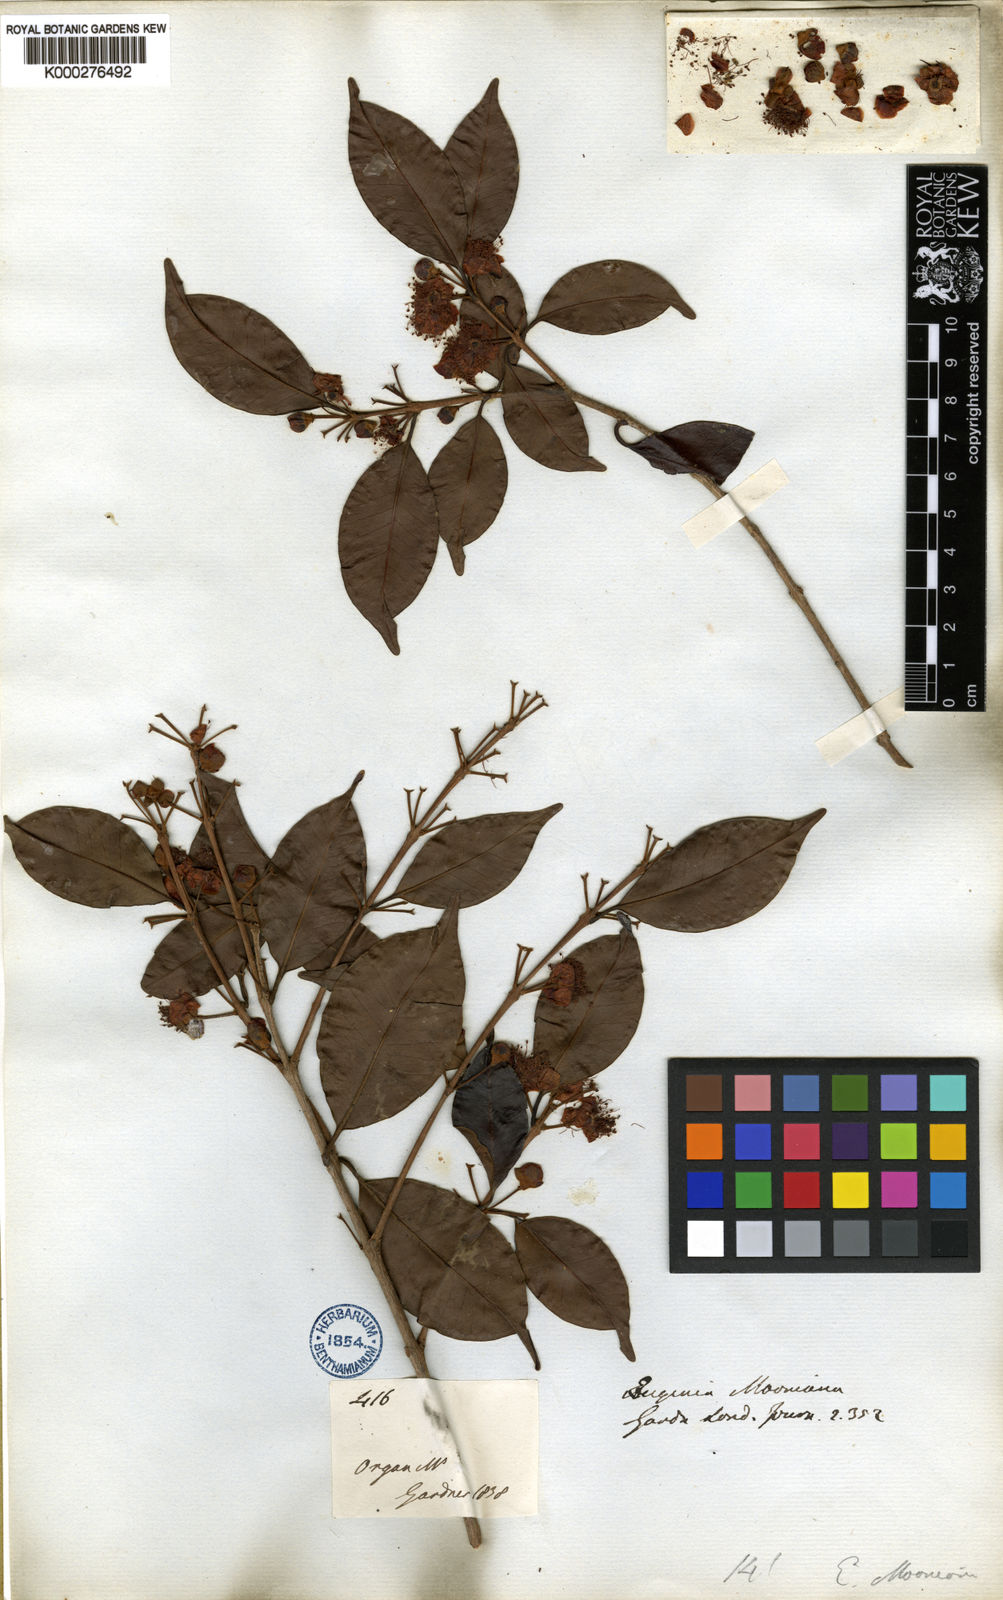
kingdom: Plantae
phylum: Tracheophyta
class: Magnoliopsida
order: Myrtales
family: Myrtaceae
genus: Eugenia
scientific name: Eugenia subundulata
